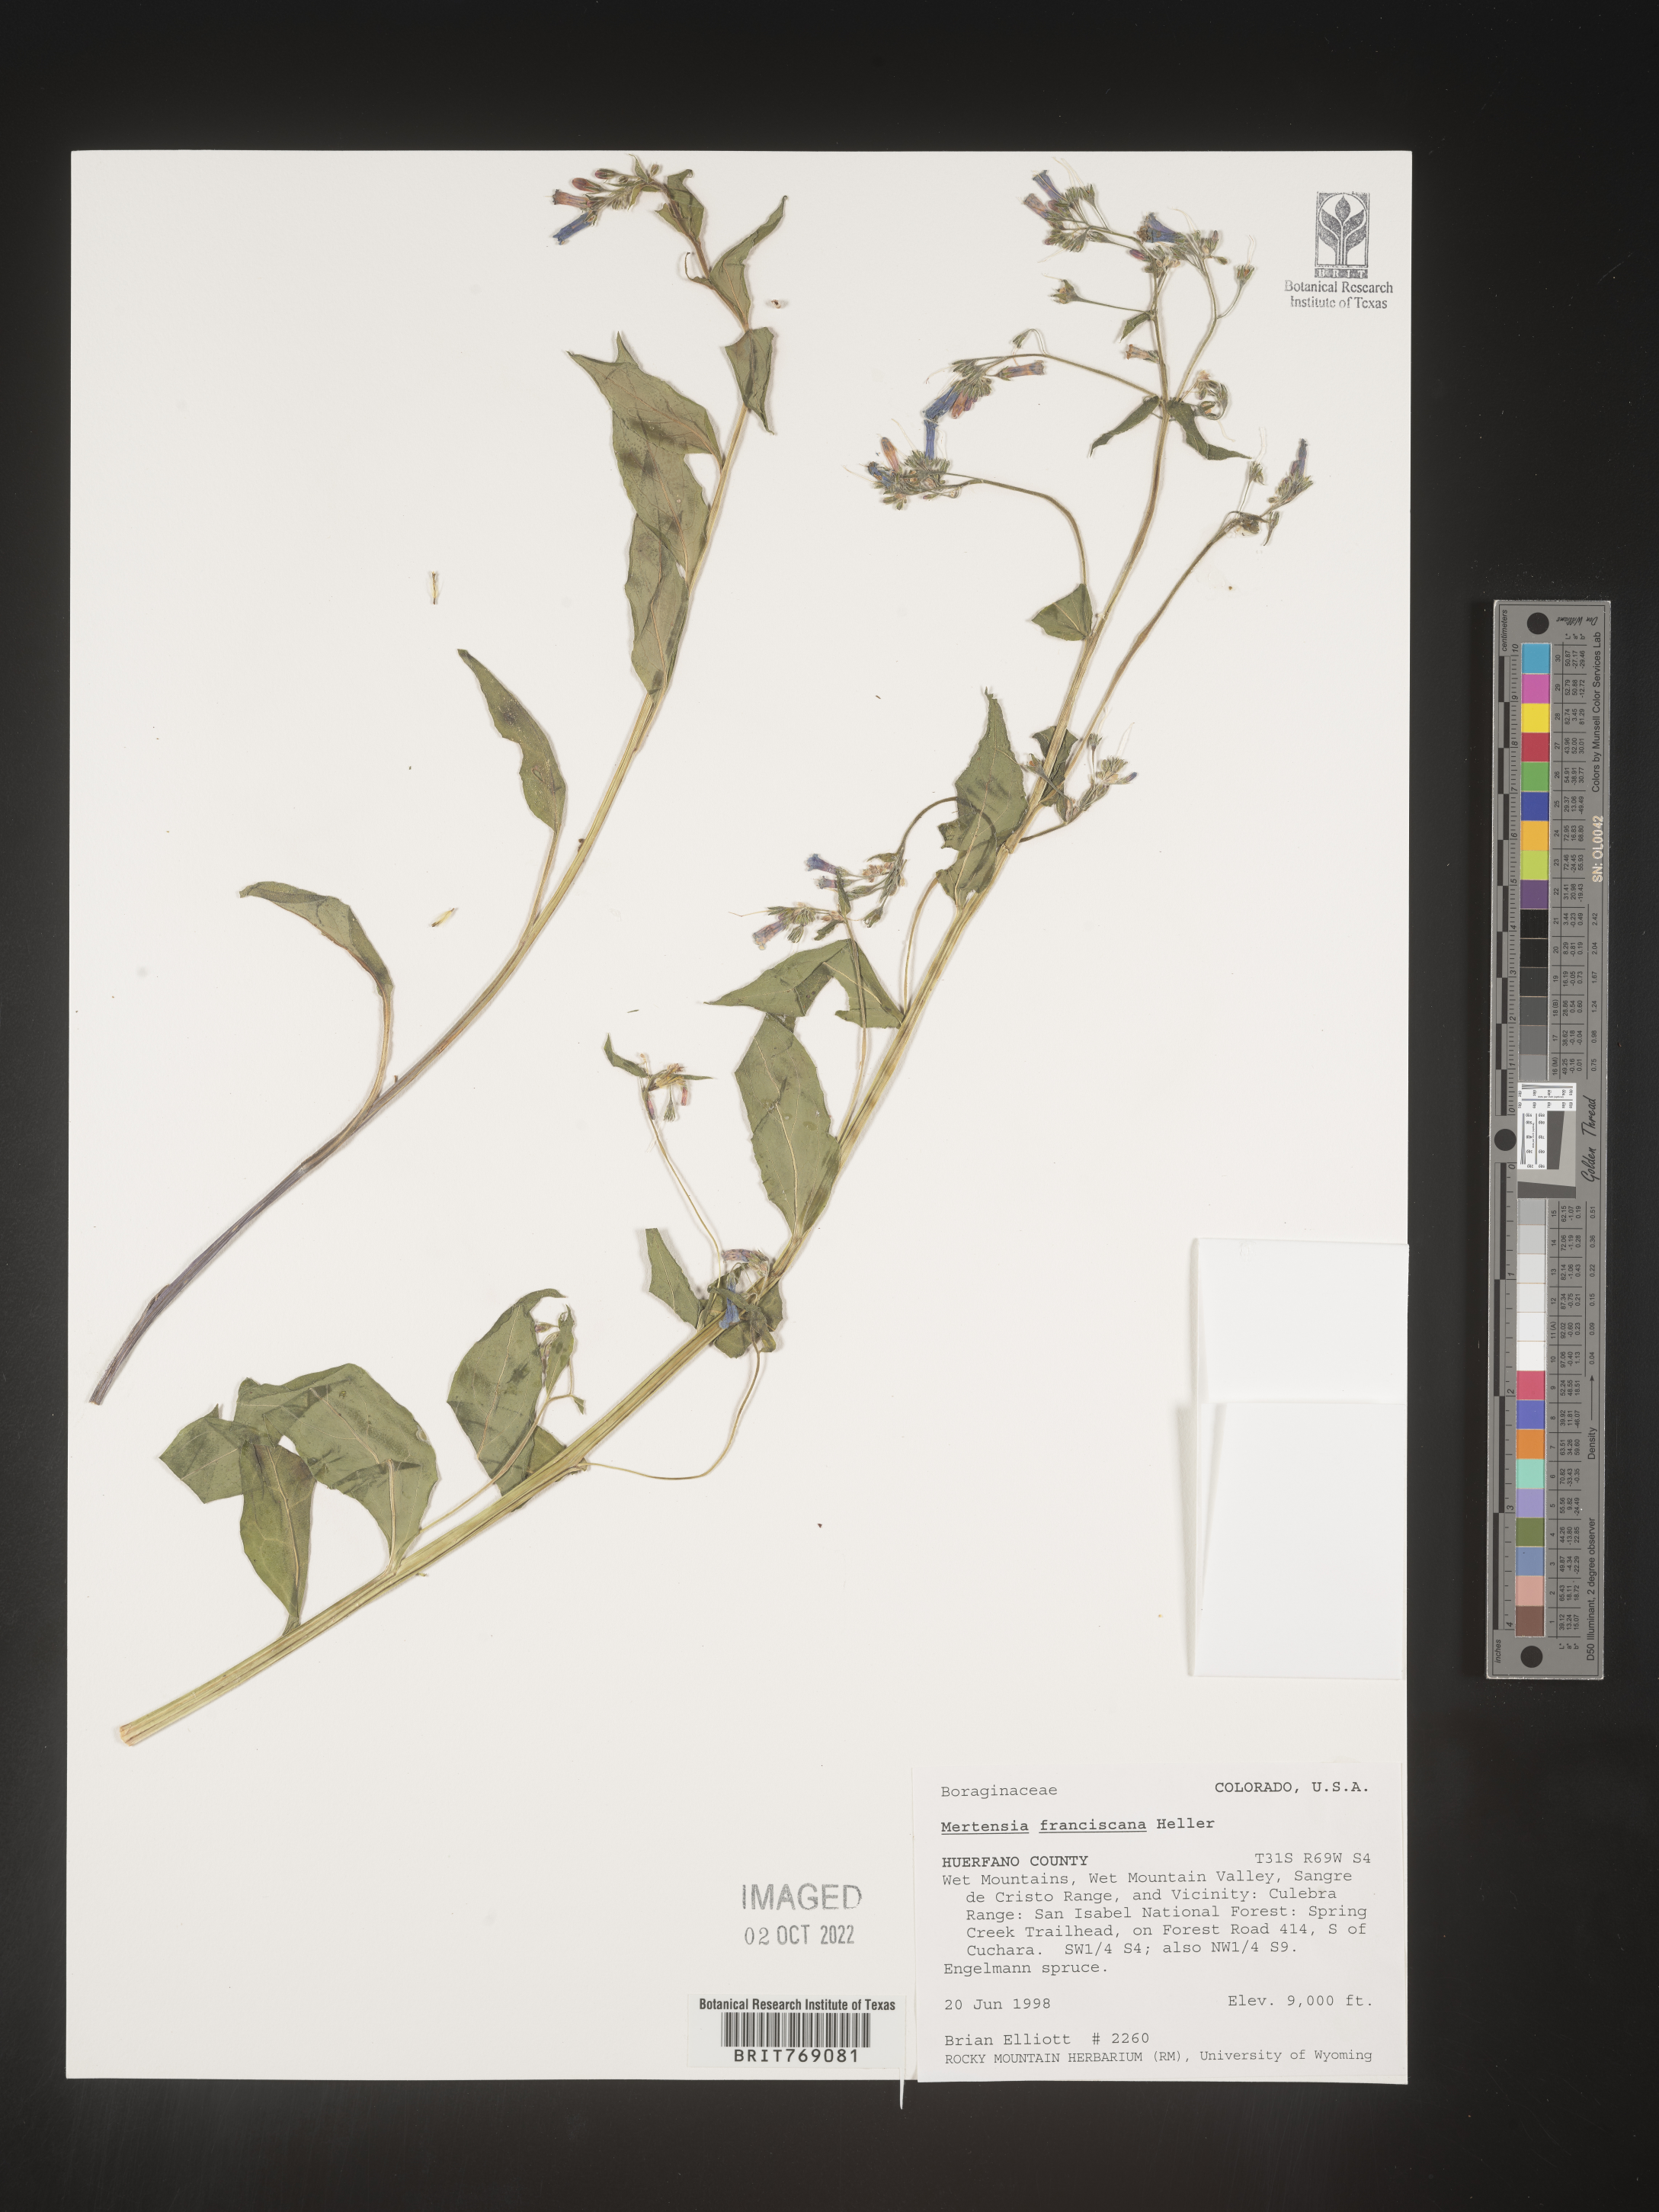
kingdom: Plantae
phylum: Tracheophyta
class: Magnoliopsida
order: Boraginales
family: Boraginaceae
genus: Mertensia
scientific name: Mertensia
